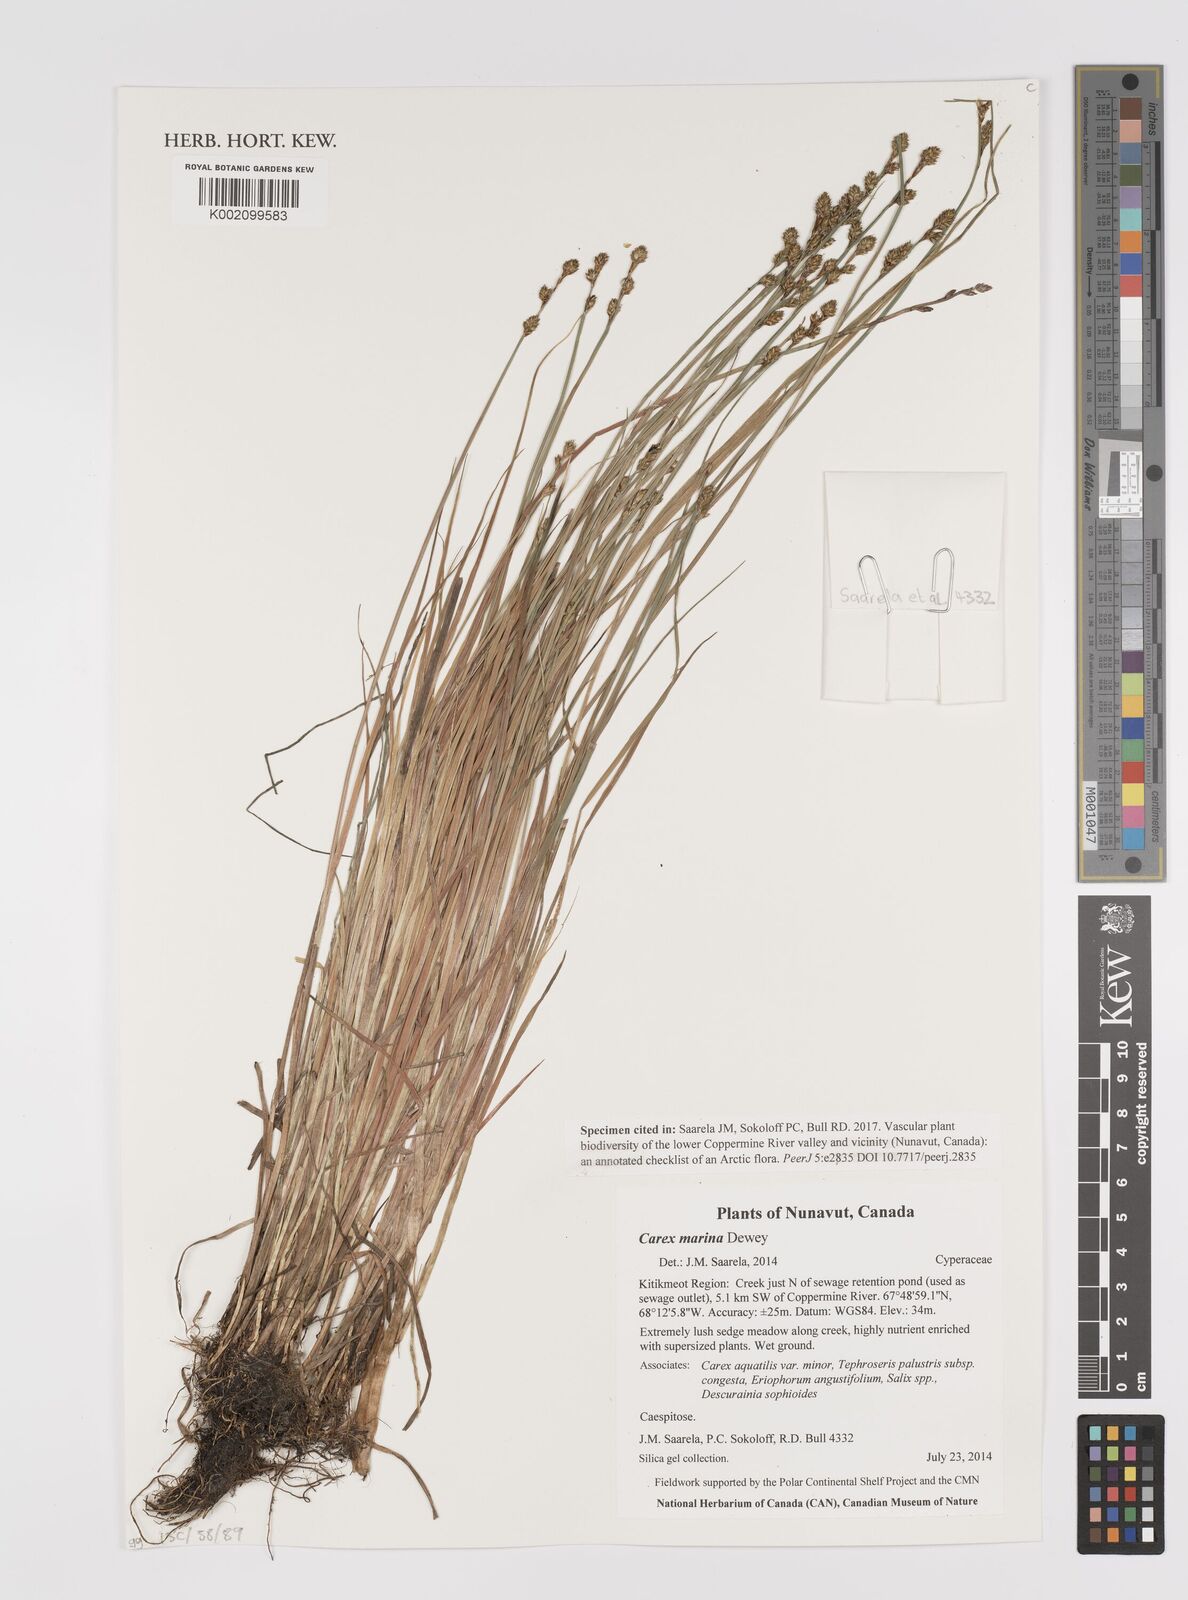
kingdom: Plantae
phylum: Tracheophyta
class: Liliopsida
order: Poales
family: Cyperaceae
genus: Carex
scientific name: Carex marina
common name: Seashore sedge
